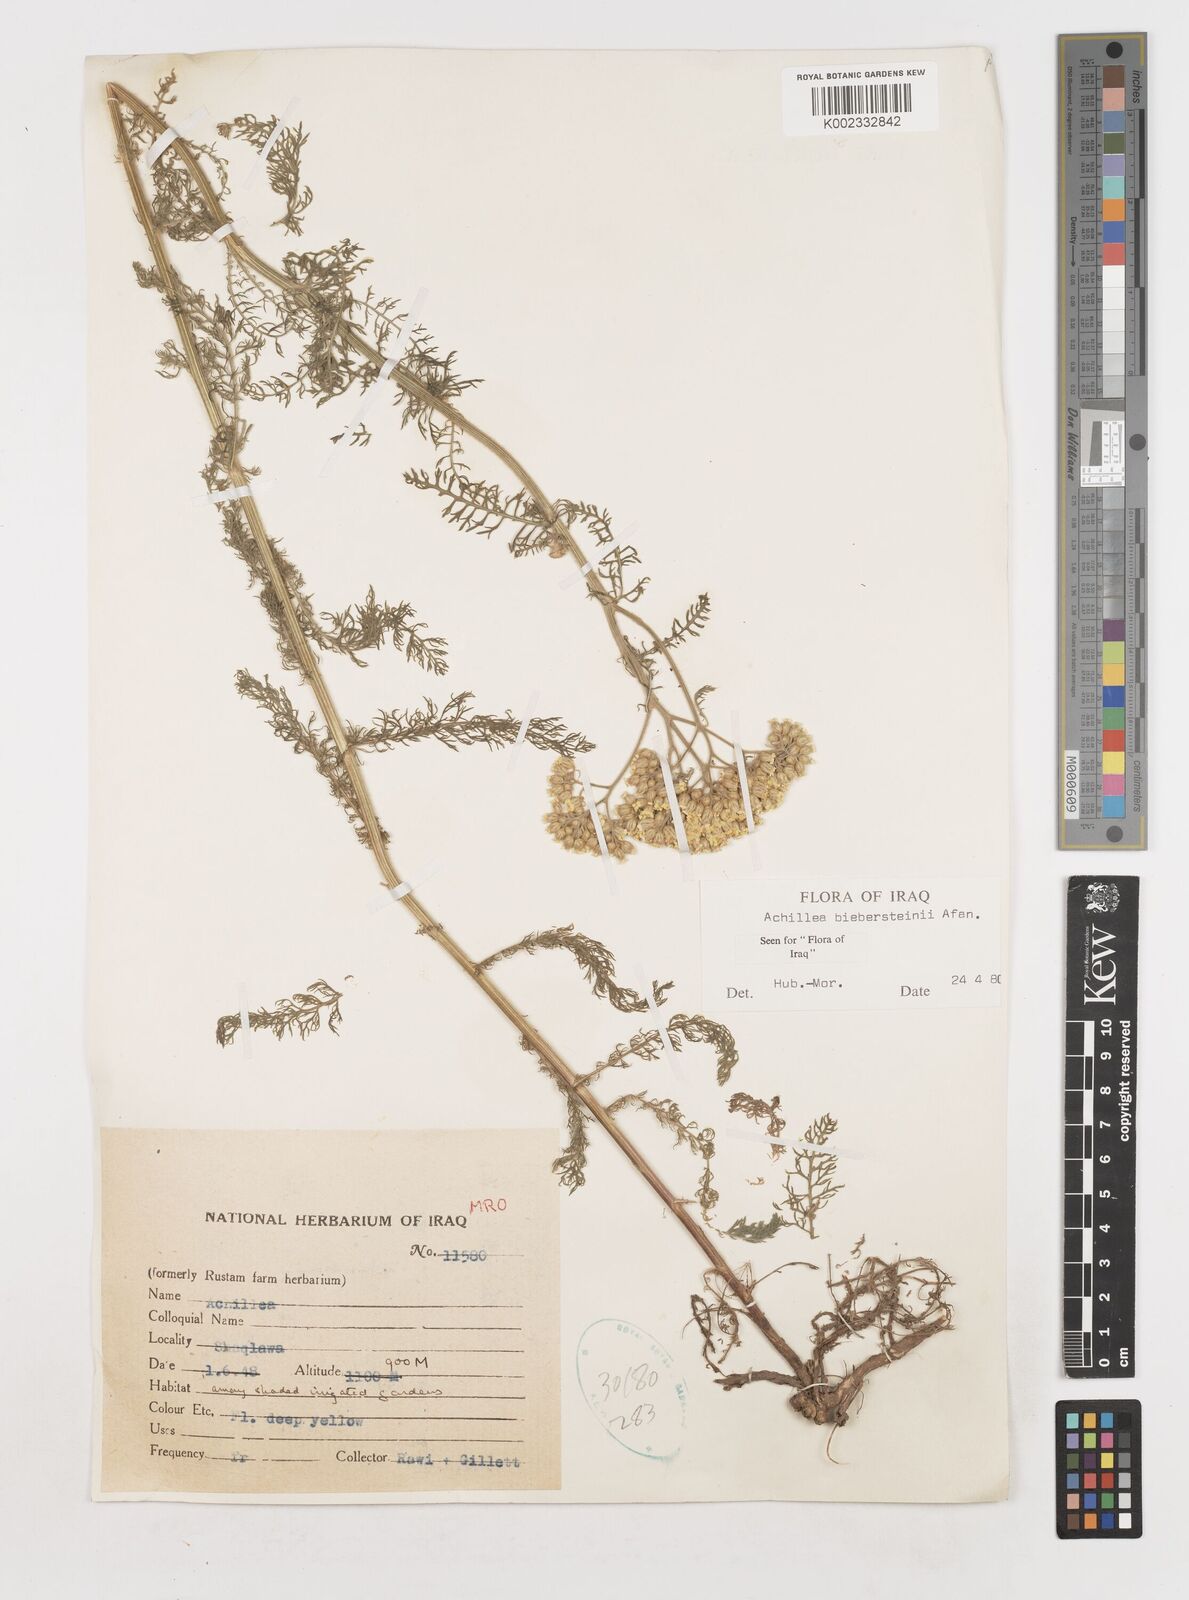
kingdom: Plantae
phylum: Tracheophyta
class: Magnoliopsida
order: Asterales
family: Asteraceae
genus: Achillea
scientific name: Achillea arabica
